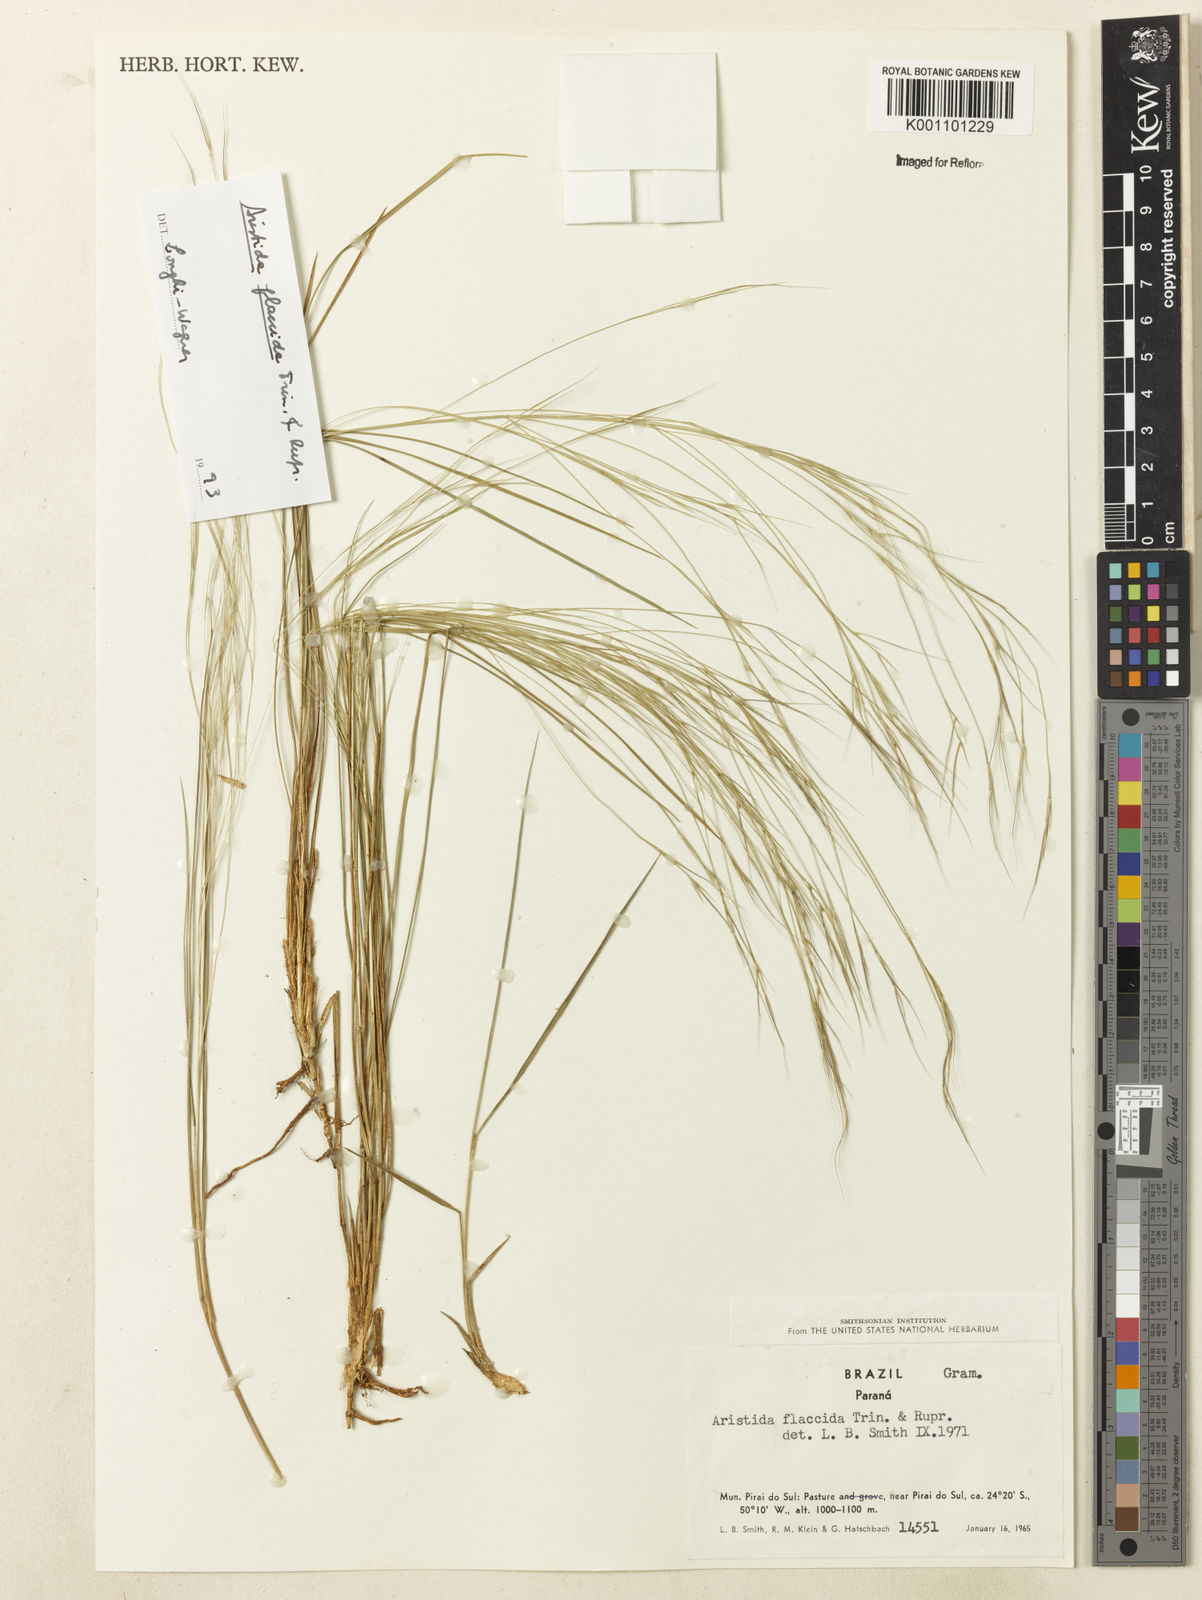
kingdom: Plantae
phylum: Tracheophyta
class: Liliopsida
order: Poales
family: Poaceae
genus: Aristida
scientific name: Aristida flaccida
